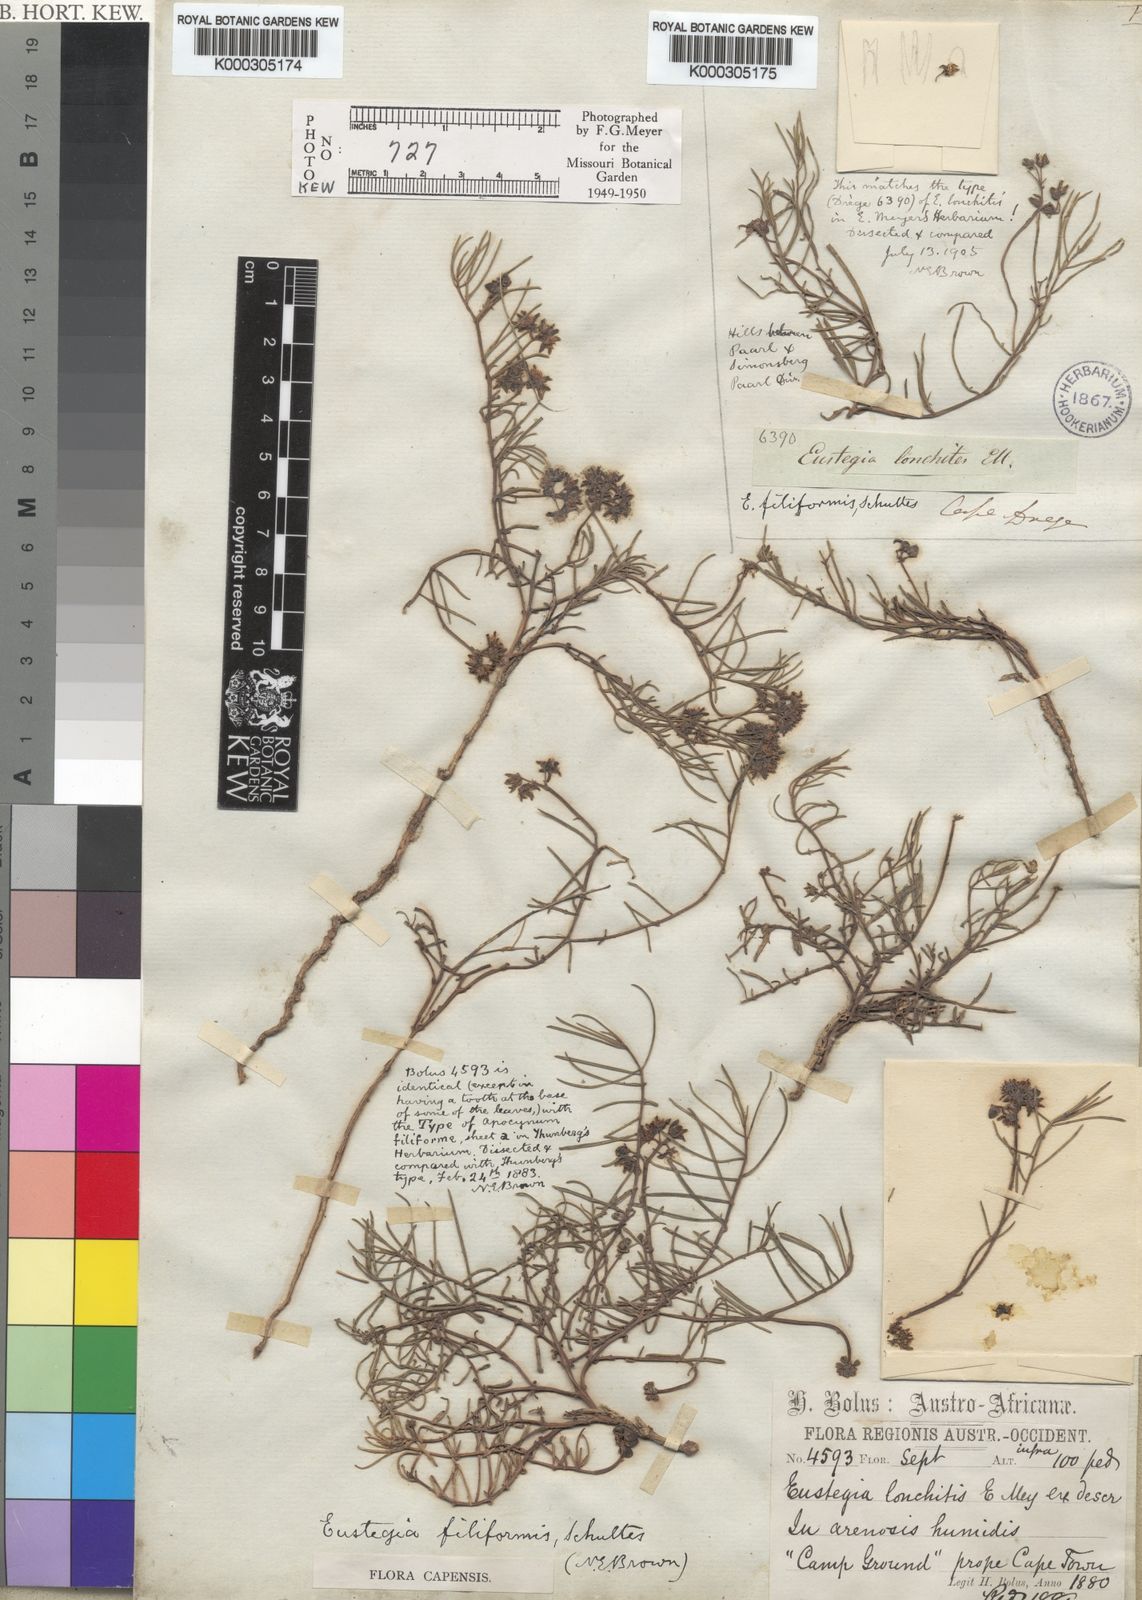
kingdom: Plantae
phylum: Tracheophyta
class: Magnoliopsida
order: Gentianales
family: Apocynaceae
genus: Eustegia
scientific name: Eustegia filiformis
